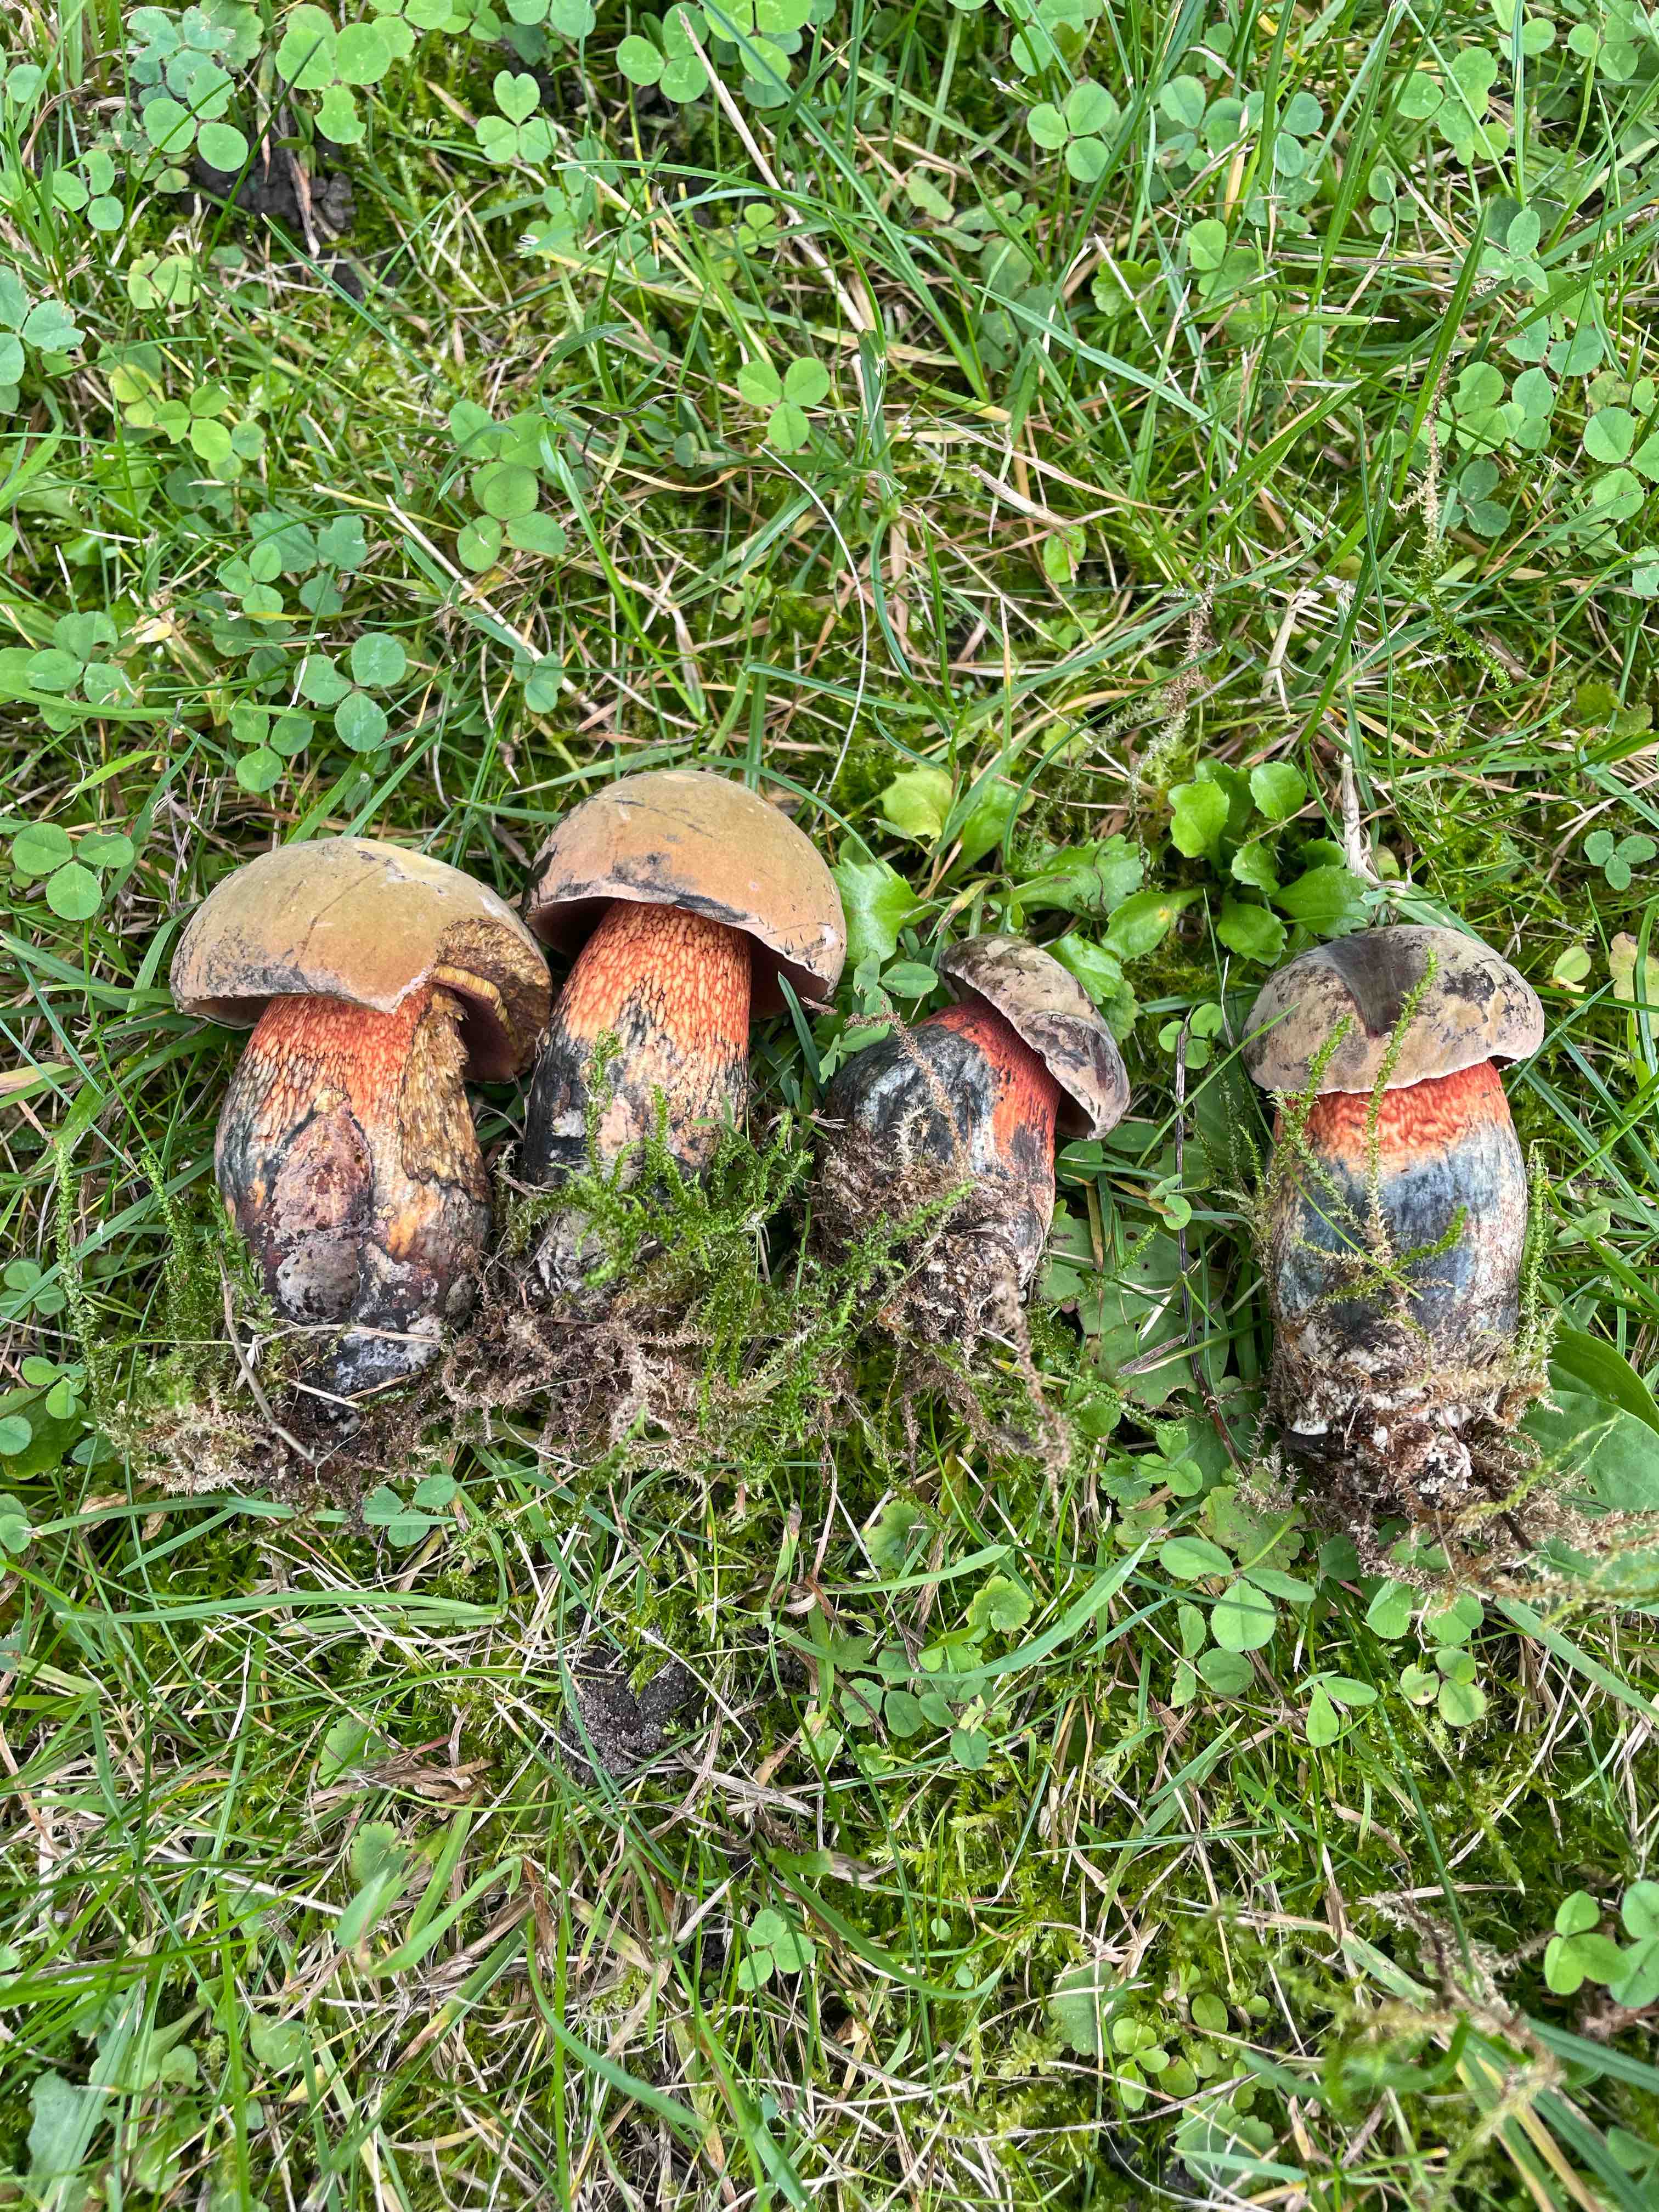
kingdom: Fungi
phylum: Basidiomycota
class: Agaricomycetes
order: Boletales
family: Boletaceae
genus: Suillellus
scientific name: Suillellus luridus
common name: netstokket indigorørhat
